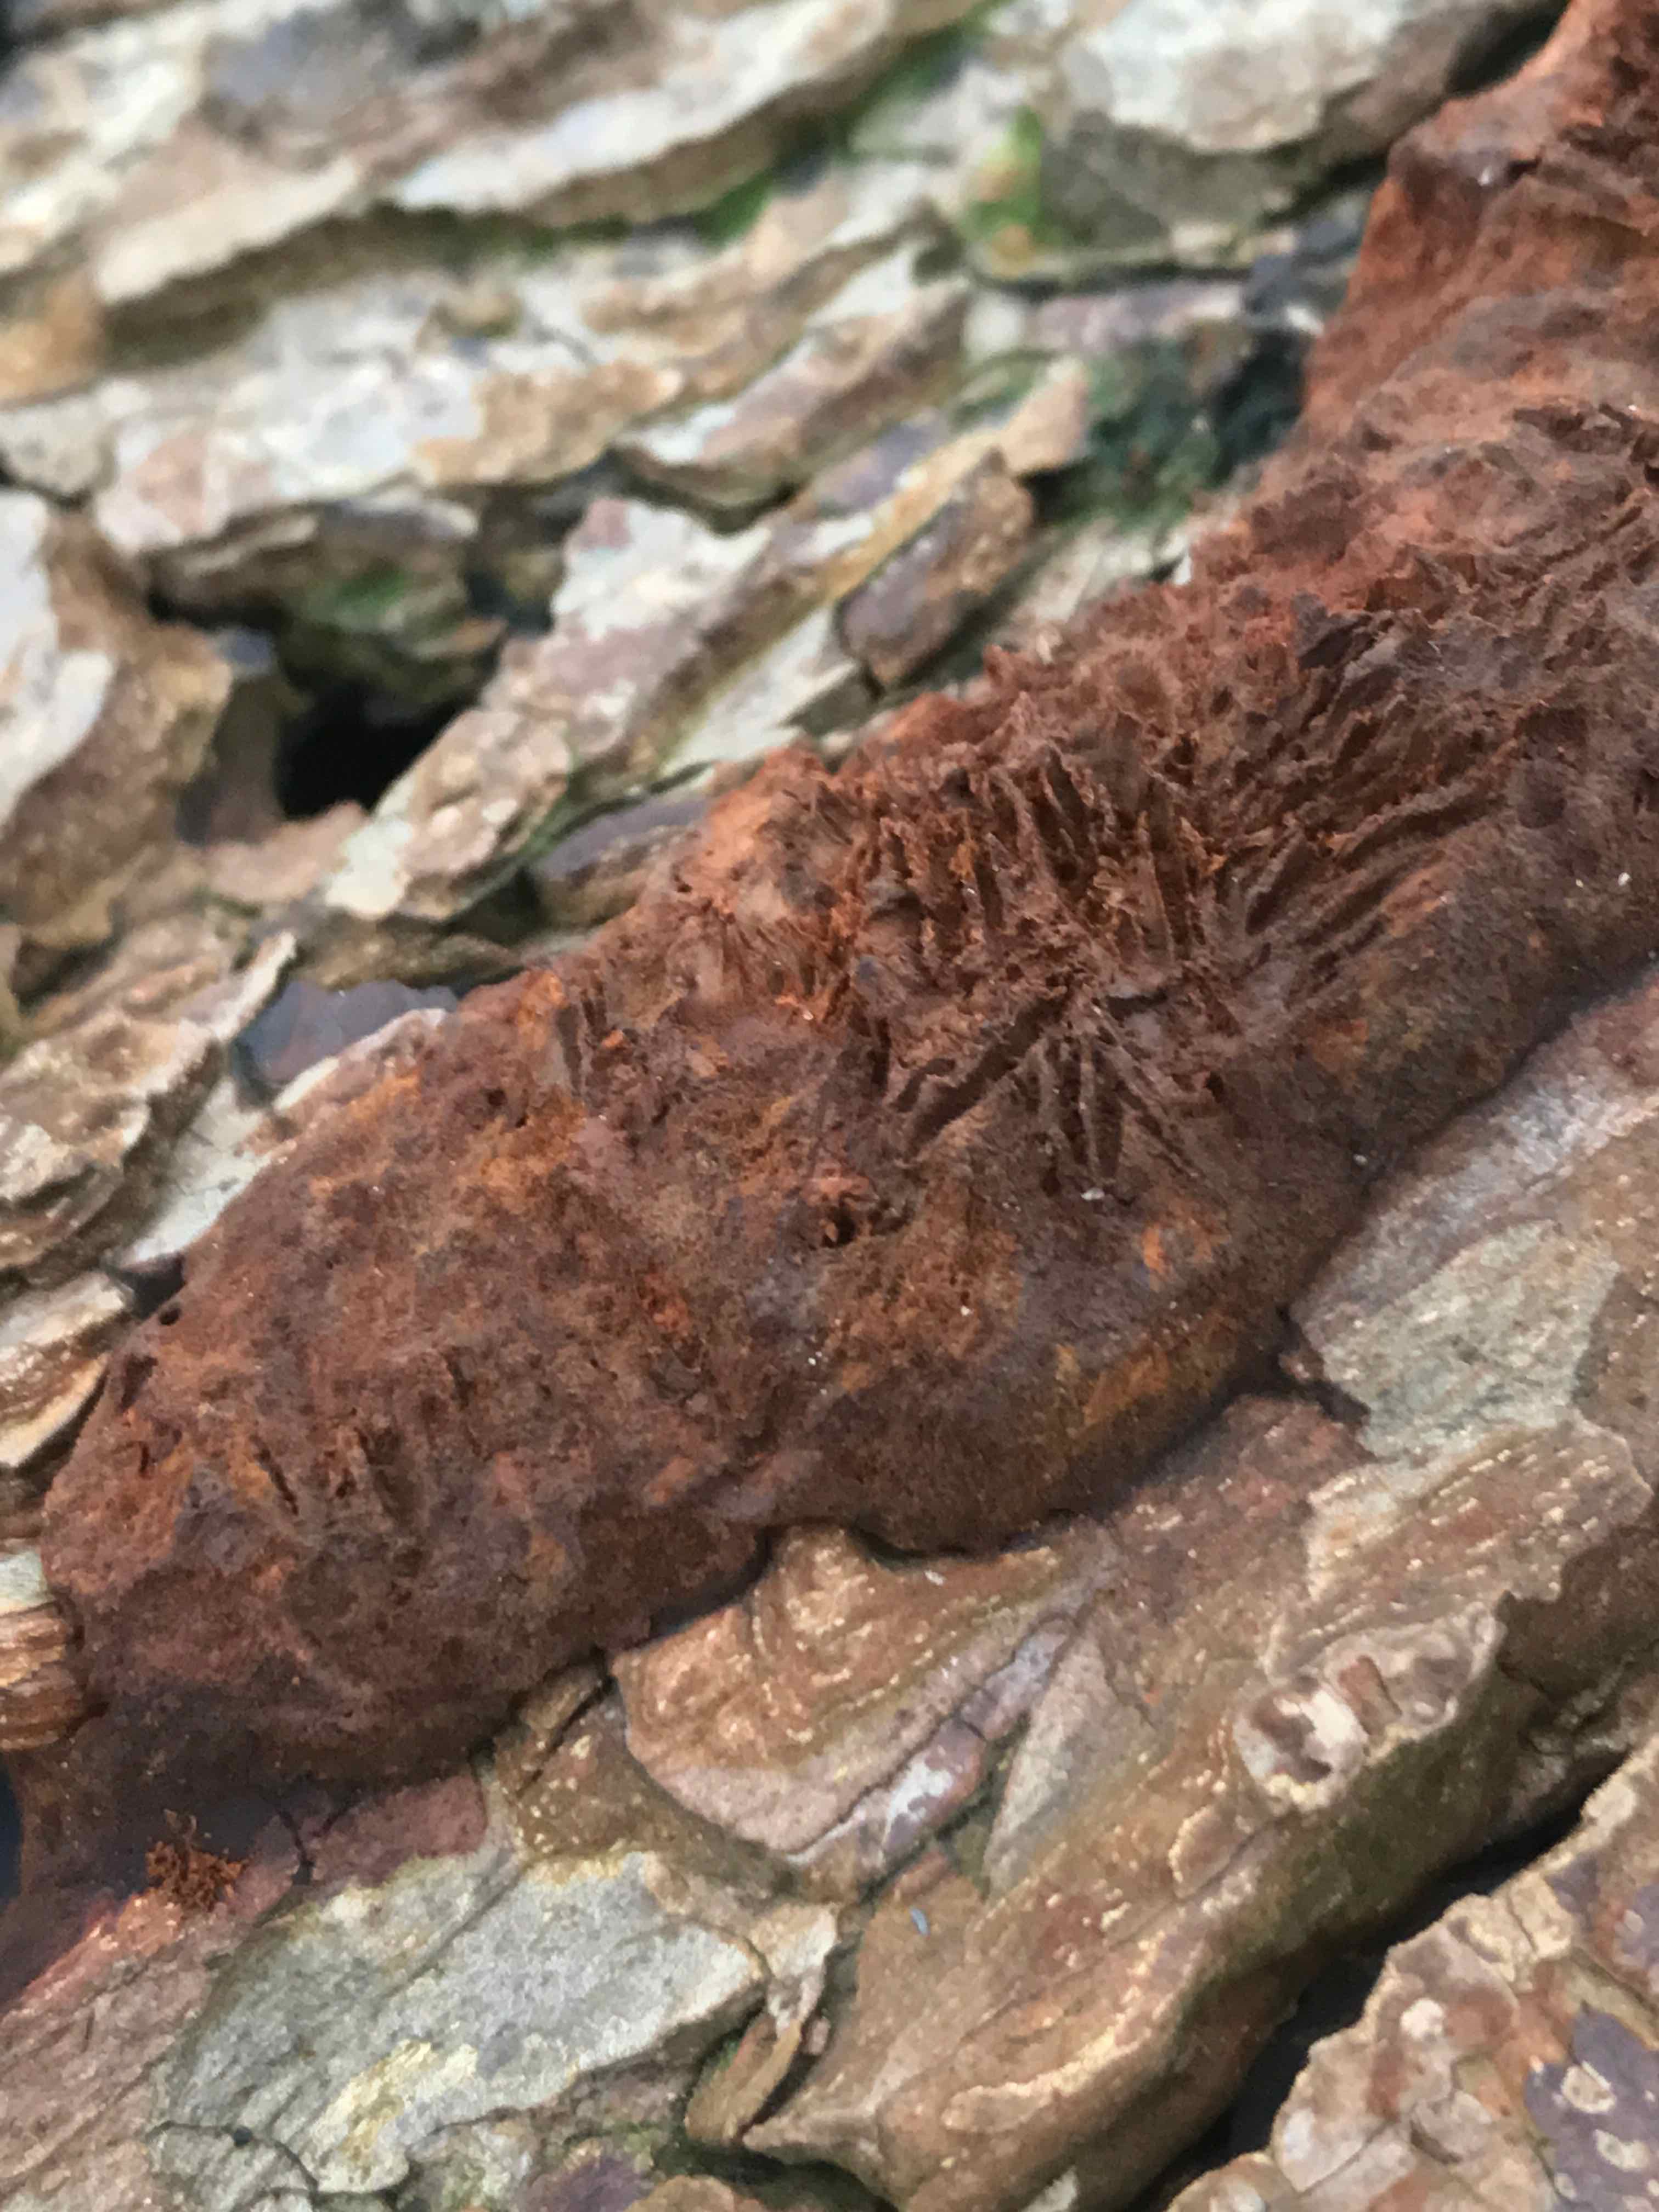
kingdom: Fungi
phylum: Basidiomycota
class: Agaricomycetes
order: Hymenochaetales
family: Hymenochaetaceae
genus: Fuscoporia
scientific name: Fuscoporia ferrea
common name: skorpe-ildporesvamp
